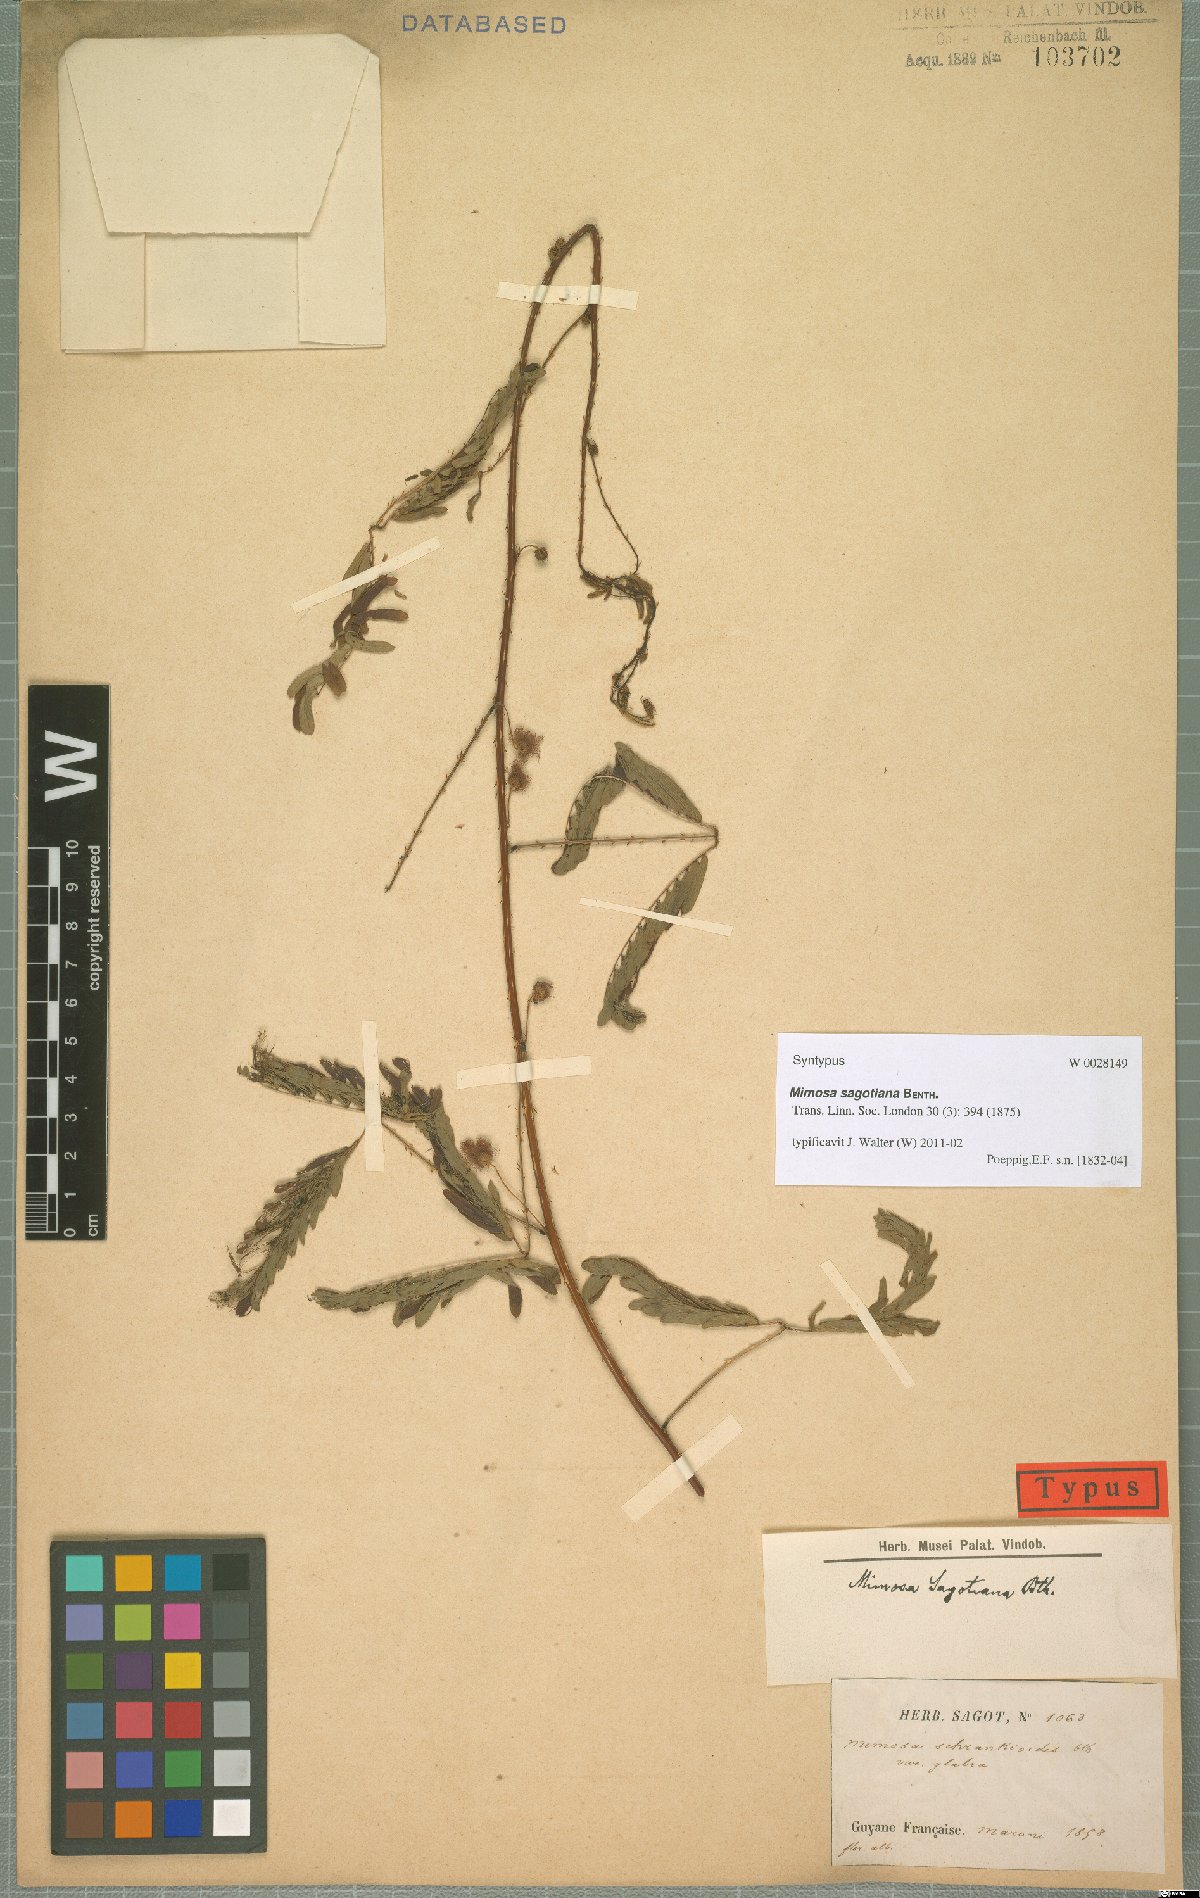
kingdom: Plantae
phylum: Tracheophyta
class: Magnoliopsida
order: Fabales
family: Fabaceae
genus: Mimosa
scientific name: Mimosa schrankioides
